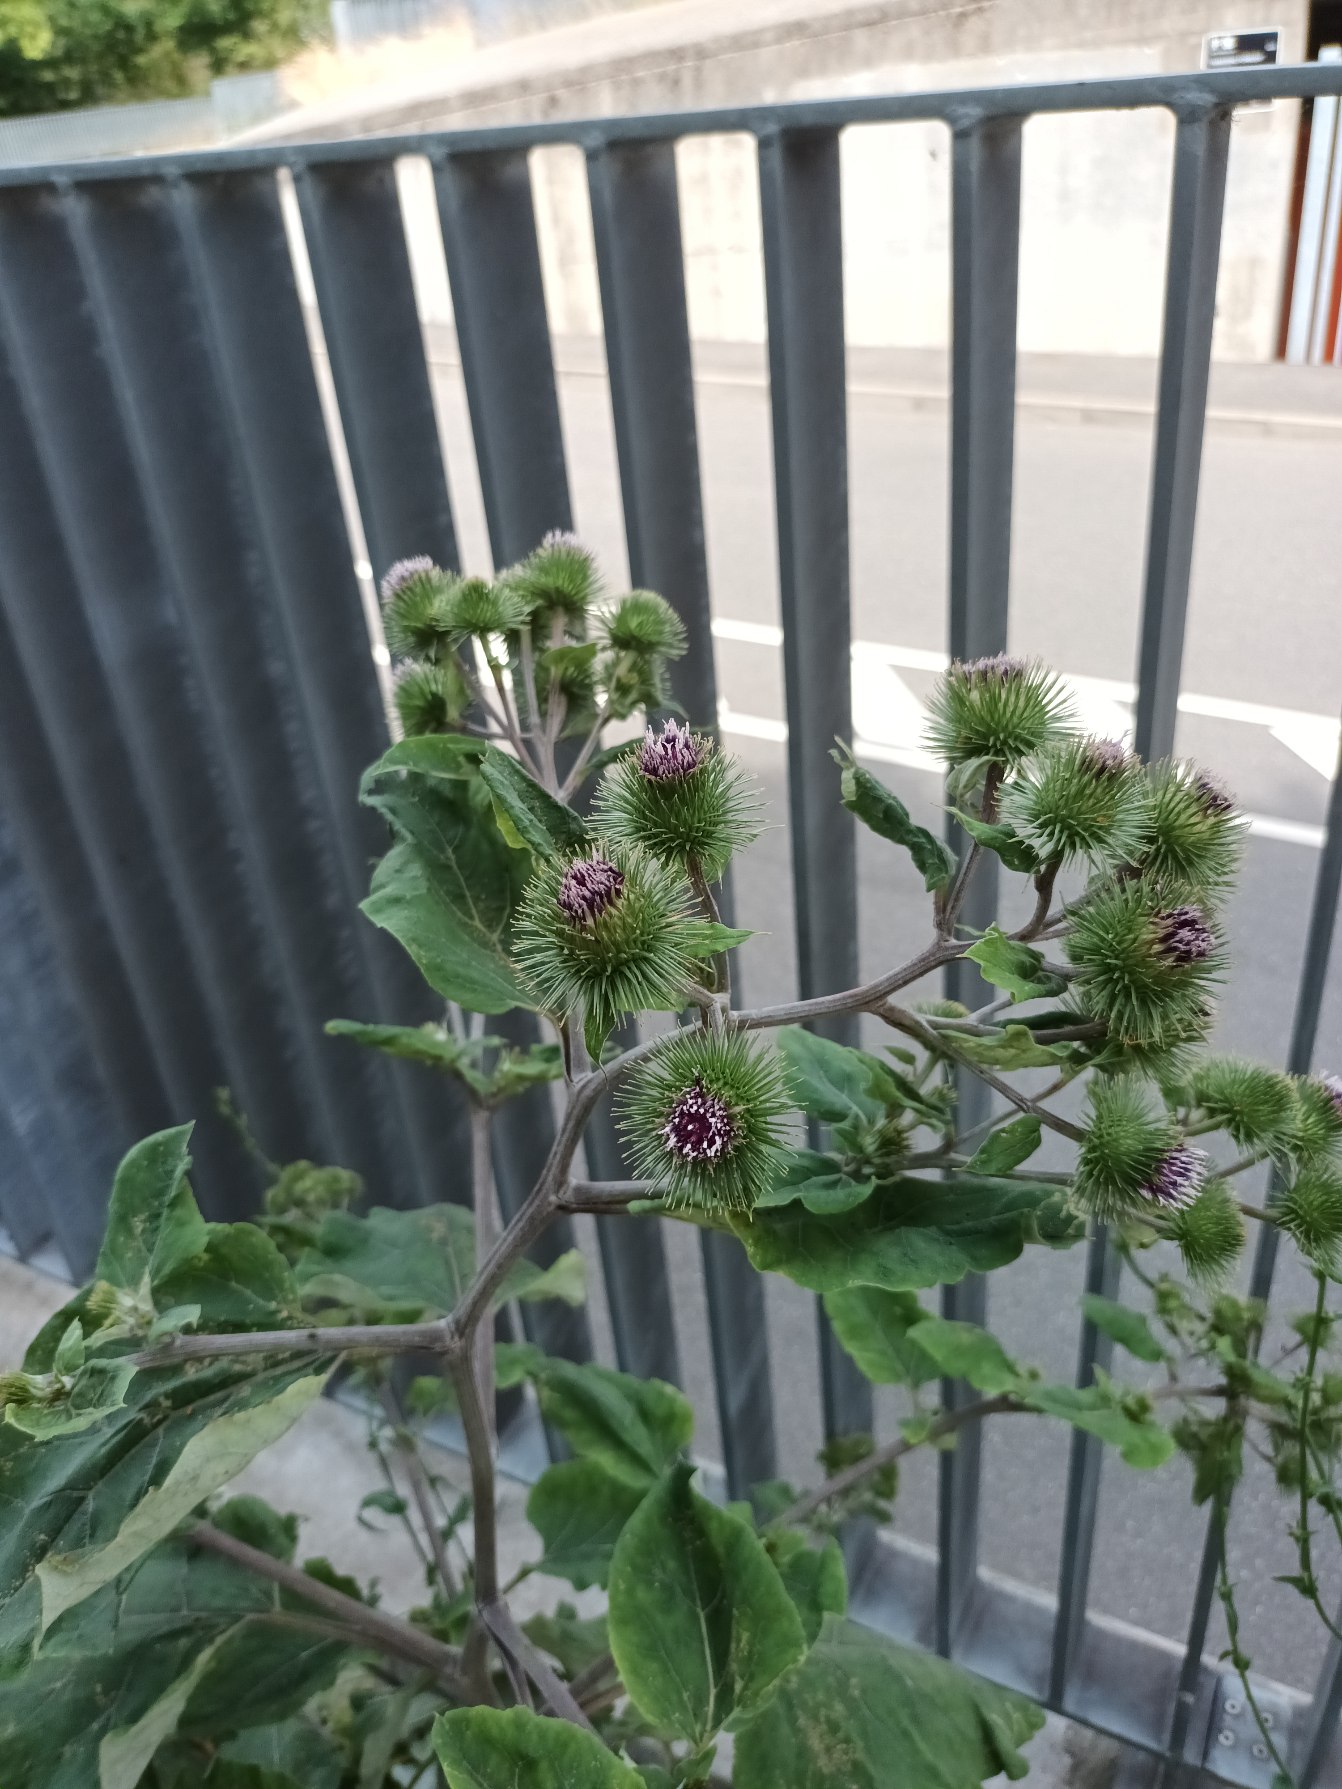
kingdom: Plantae
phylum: Tracheophyta
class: Magnoliopsida
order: Asterales
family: Asteraceae
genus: Arctium
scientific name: Arctium lappa
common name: Glat burre
